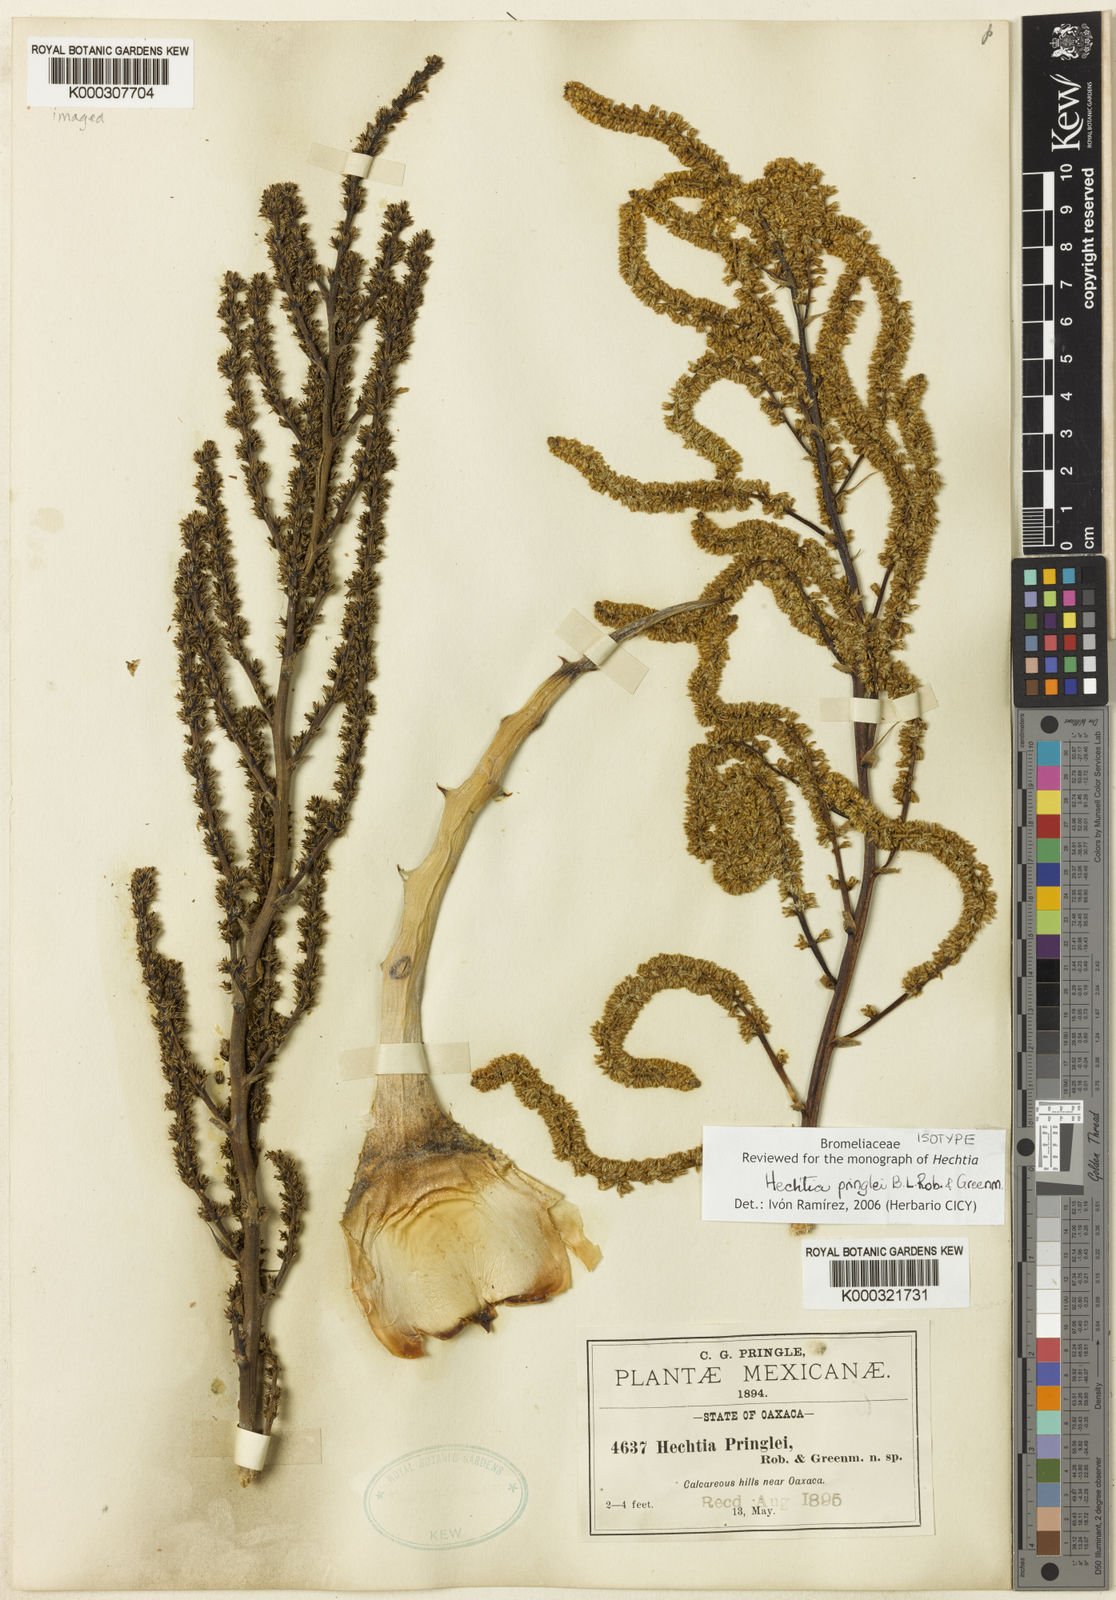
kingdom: Plantae
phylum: Tracheophyta
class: Liliopsida
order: Poales
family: Bromeliaceae
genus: Hechtia
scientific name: Hechtia stenopetala
